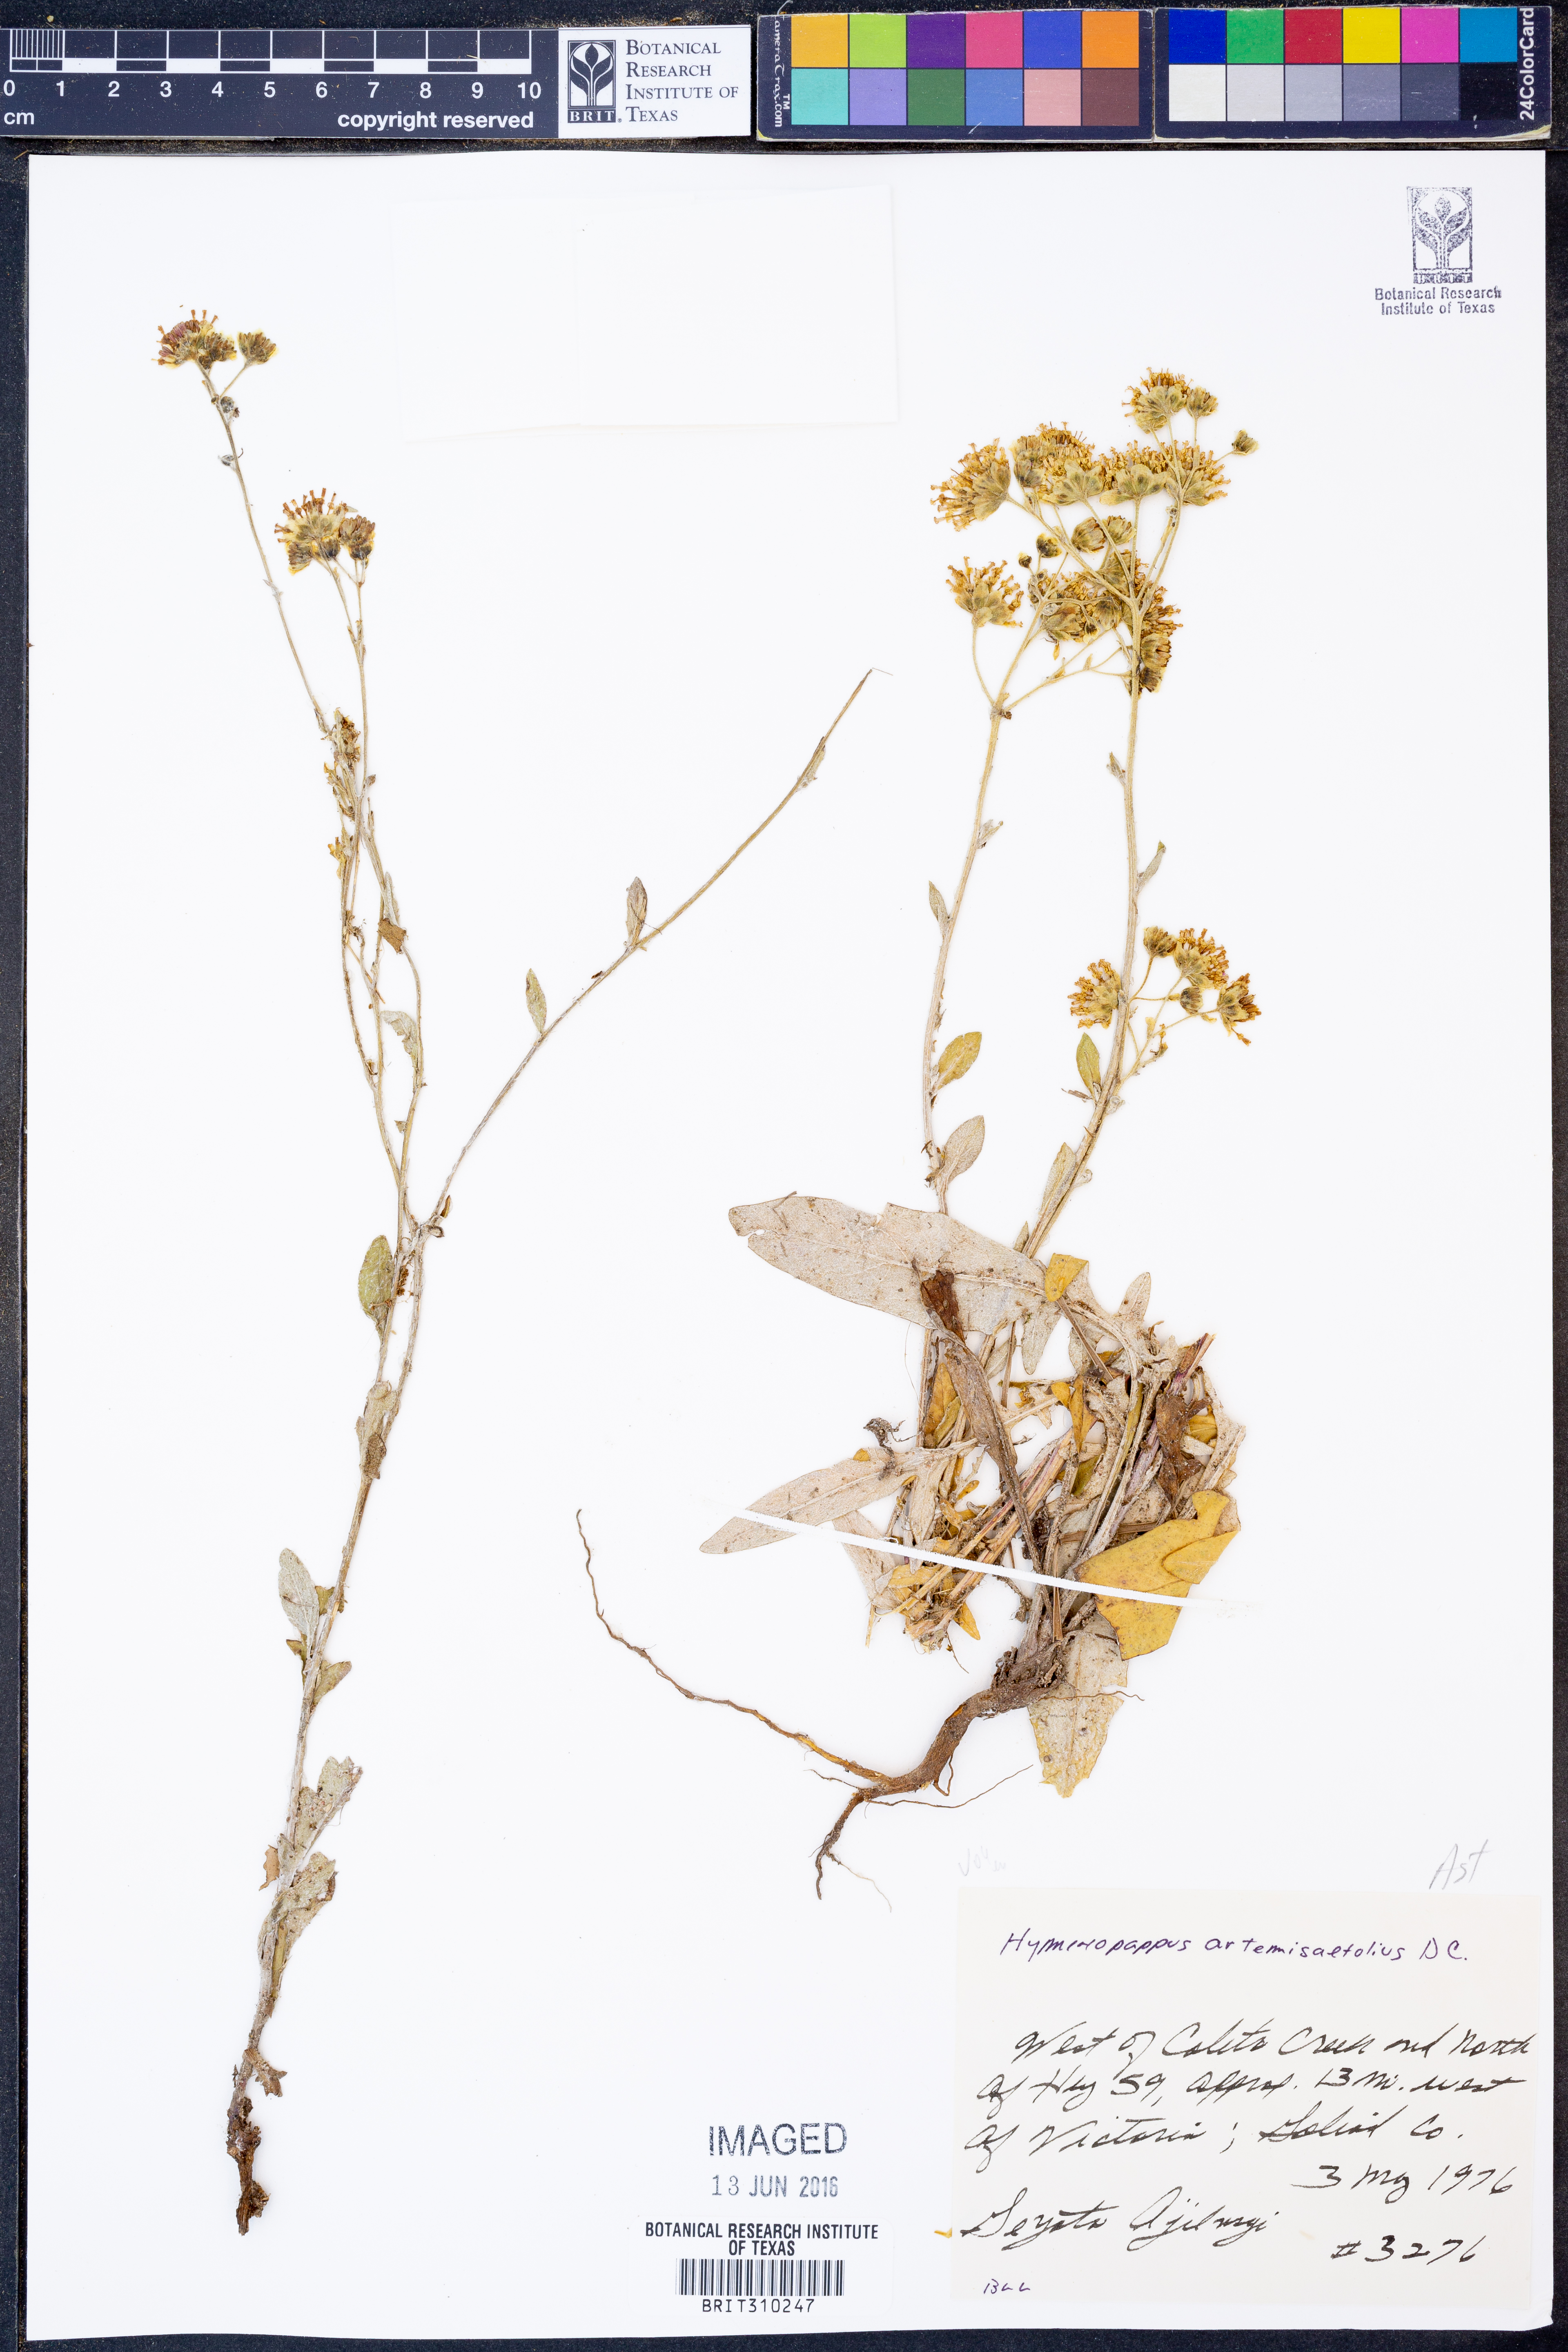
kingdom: Plantae
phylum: Tracheophyta
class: Magnoliopsida
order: Asterales
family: Asteraceae
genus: Hymenopappus
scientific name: Hymenopappus artemisiifolius
